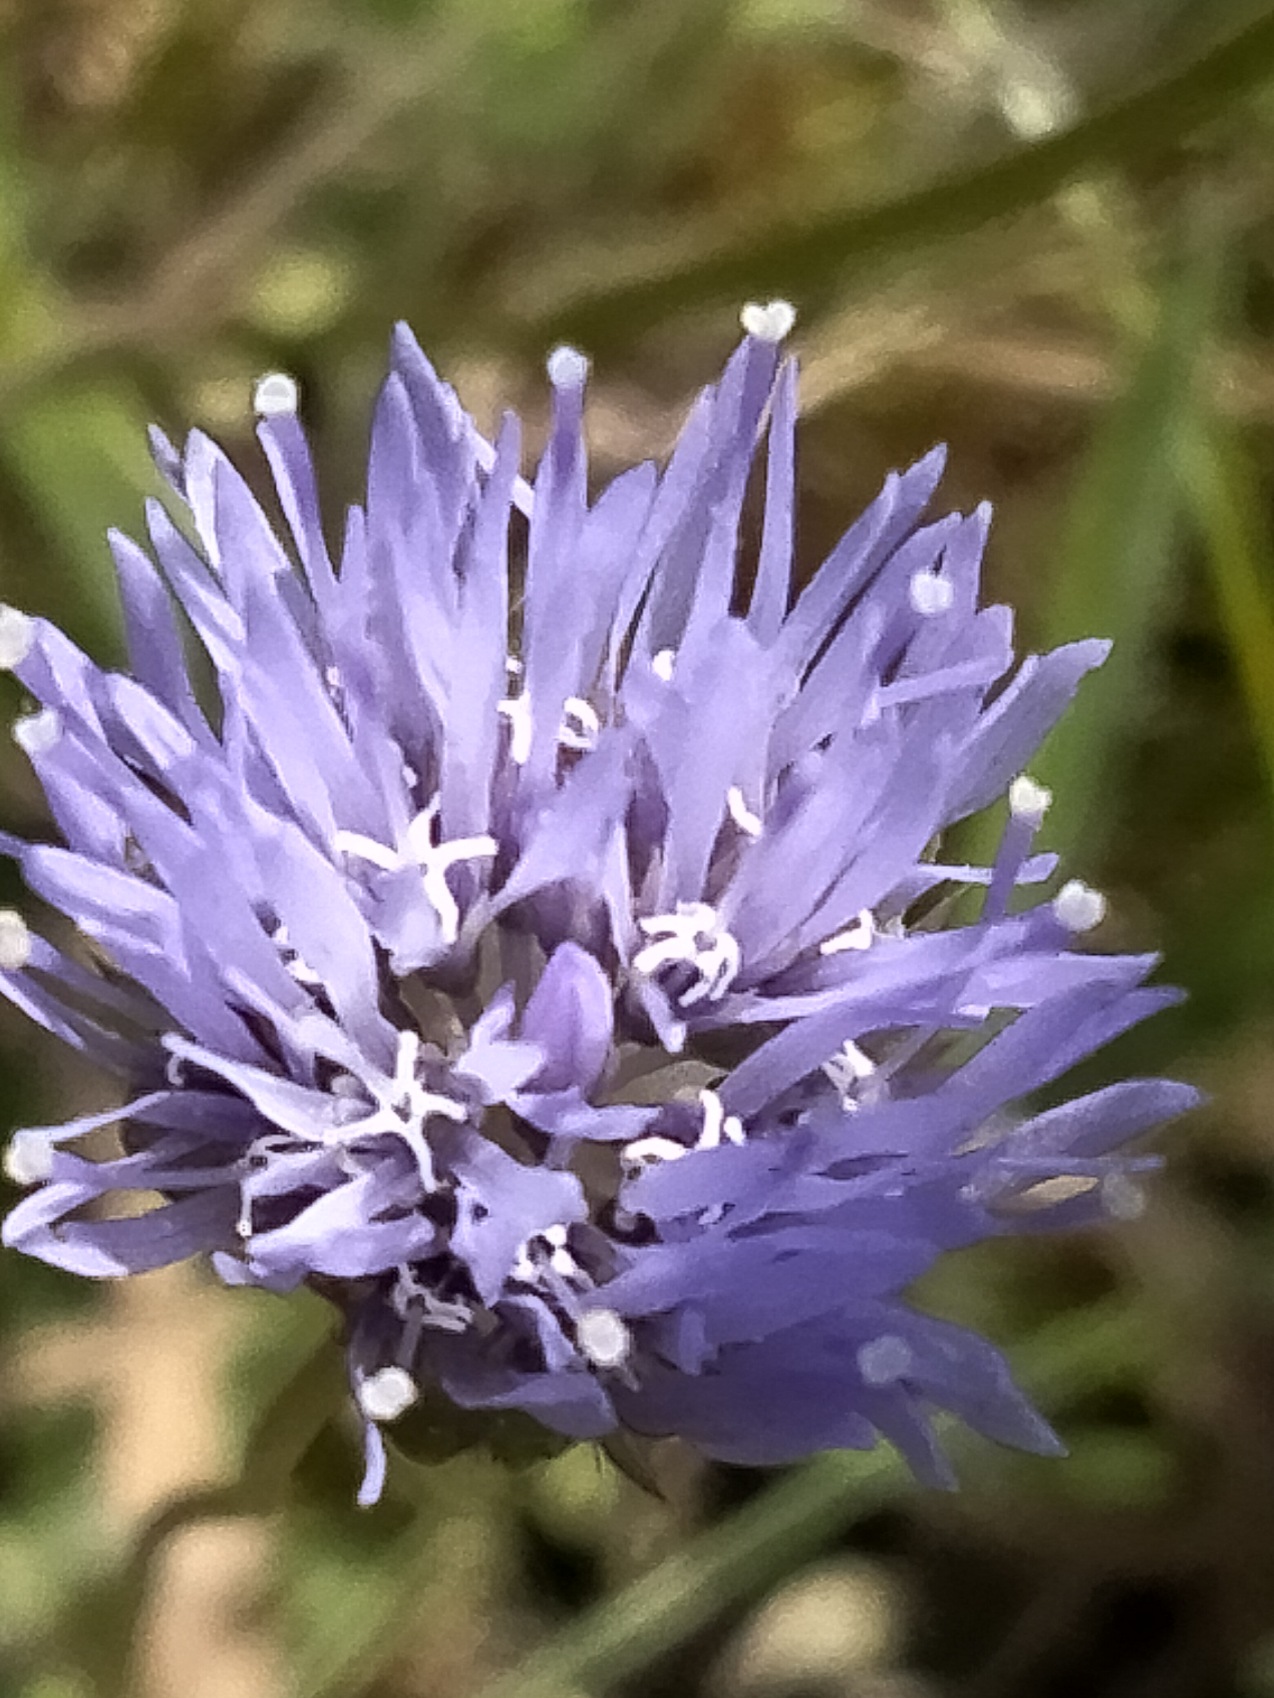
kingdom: Plantae
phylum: Tracheophyta
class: Magnoliopsida
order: Asterales
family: Campanulaceae
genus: Jasione
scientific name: Jasione montana
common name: Blåmunke
